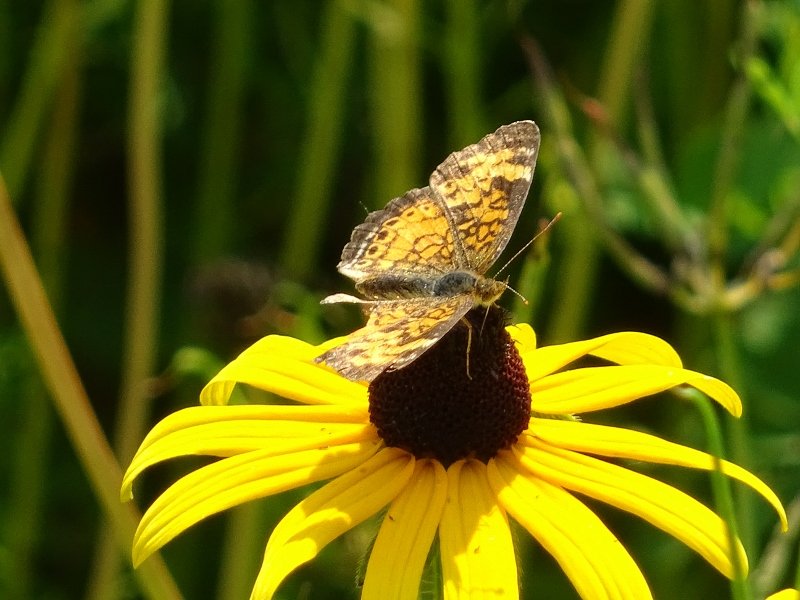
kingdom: Animalia
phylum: Arthropoda
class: Insecta
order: Lepidoptera
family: Nymphalidae
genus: Phyciodes
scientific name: Phyciodes tharos
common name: Northern Crescent
